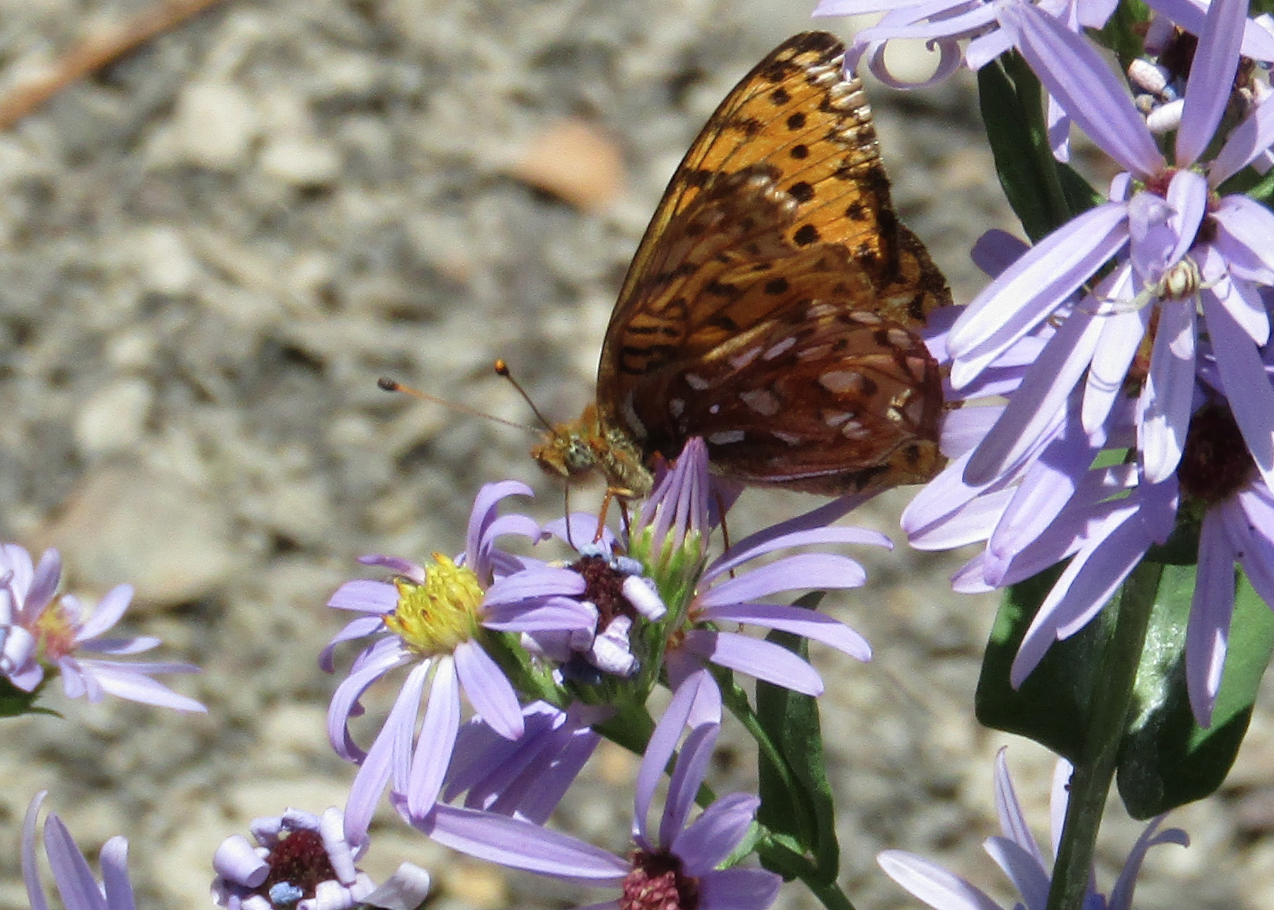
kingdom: Animalia
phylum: Arthropoda
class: Insecta
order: Lepidoptera
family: Nymphalidae
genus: Speyeria
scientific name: Speyeria mormonia
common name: Mormon Fritillary
